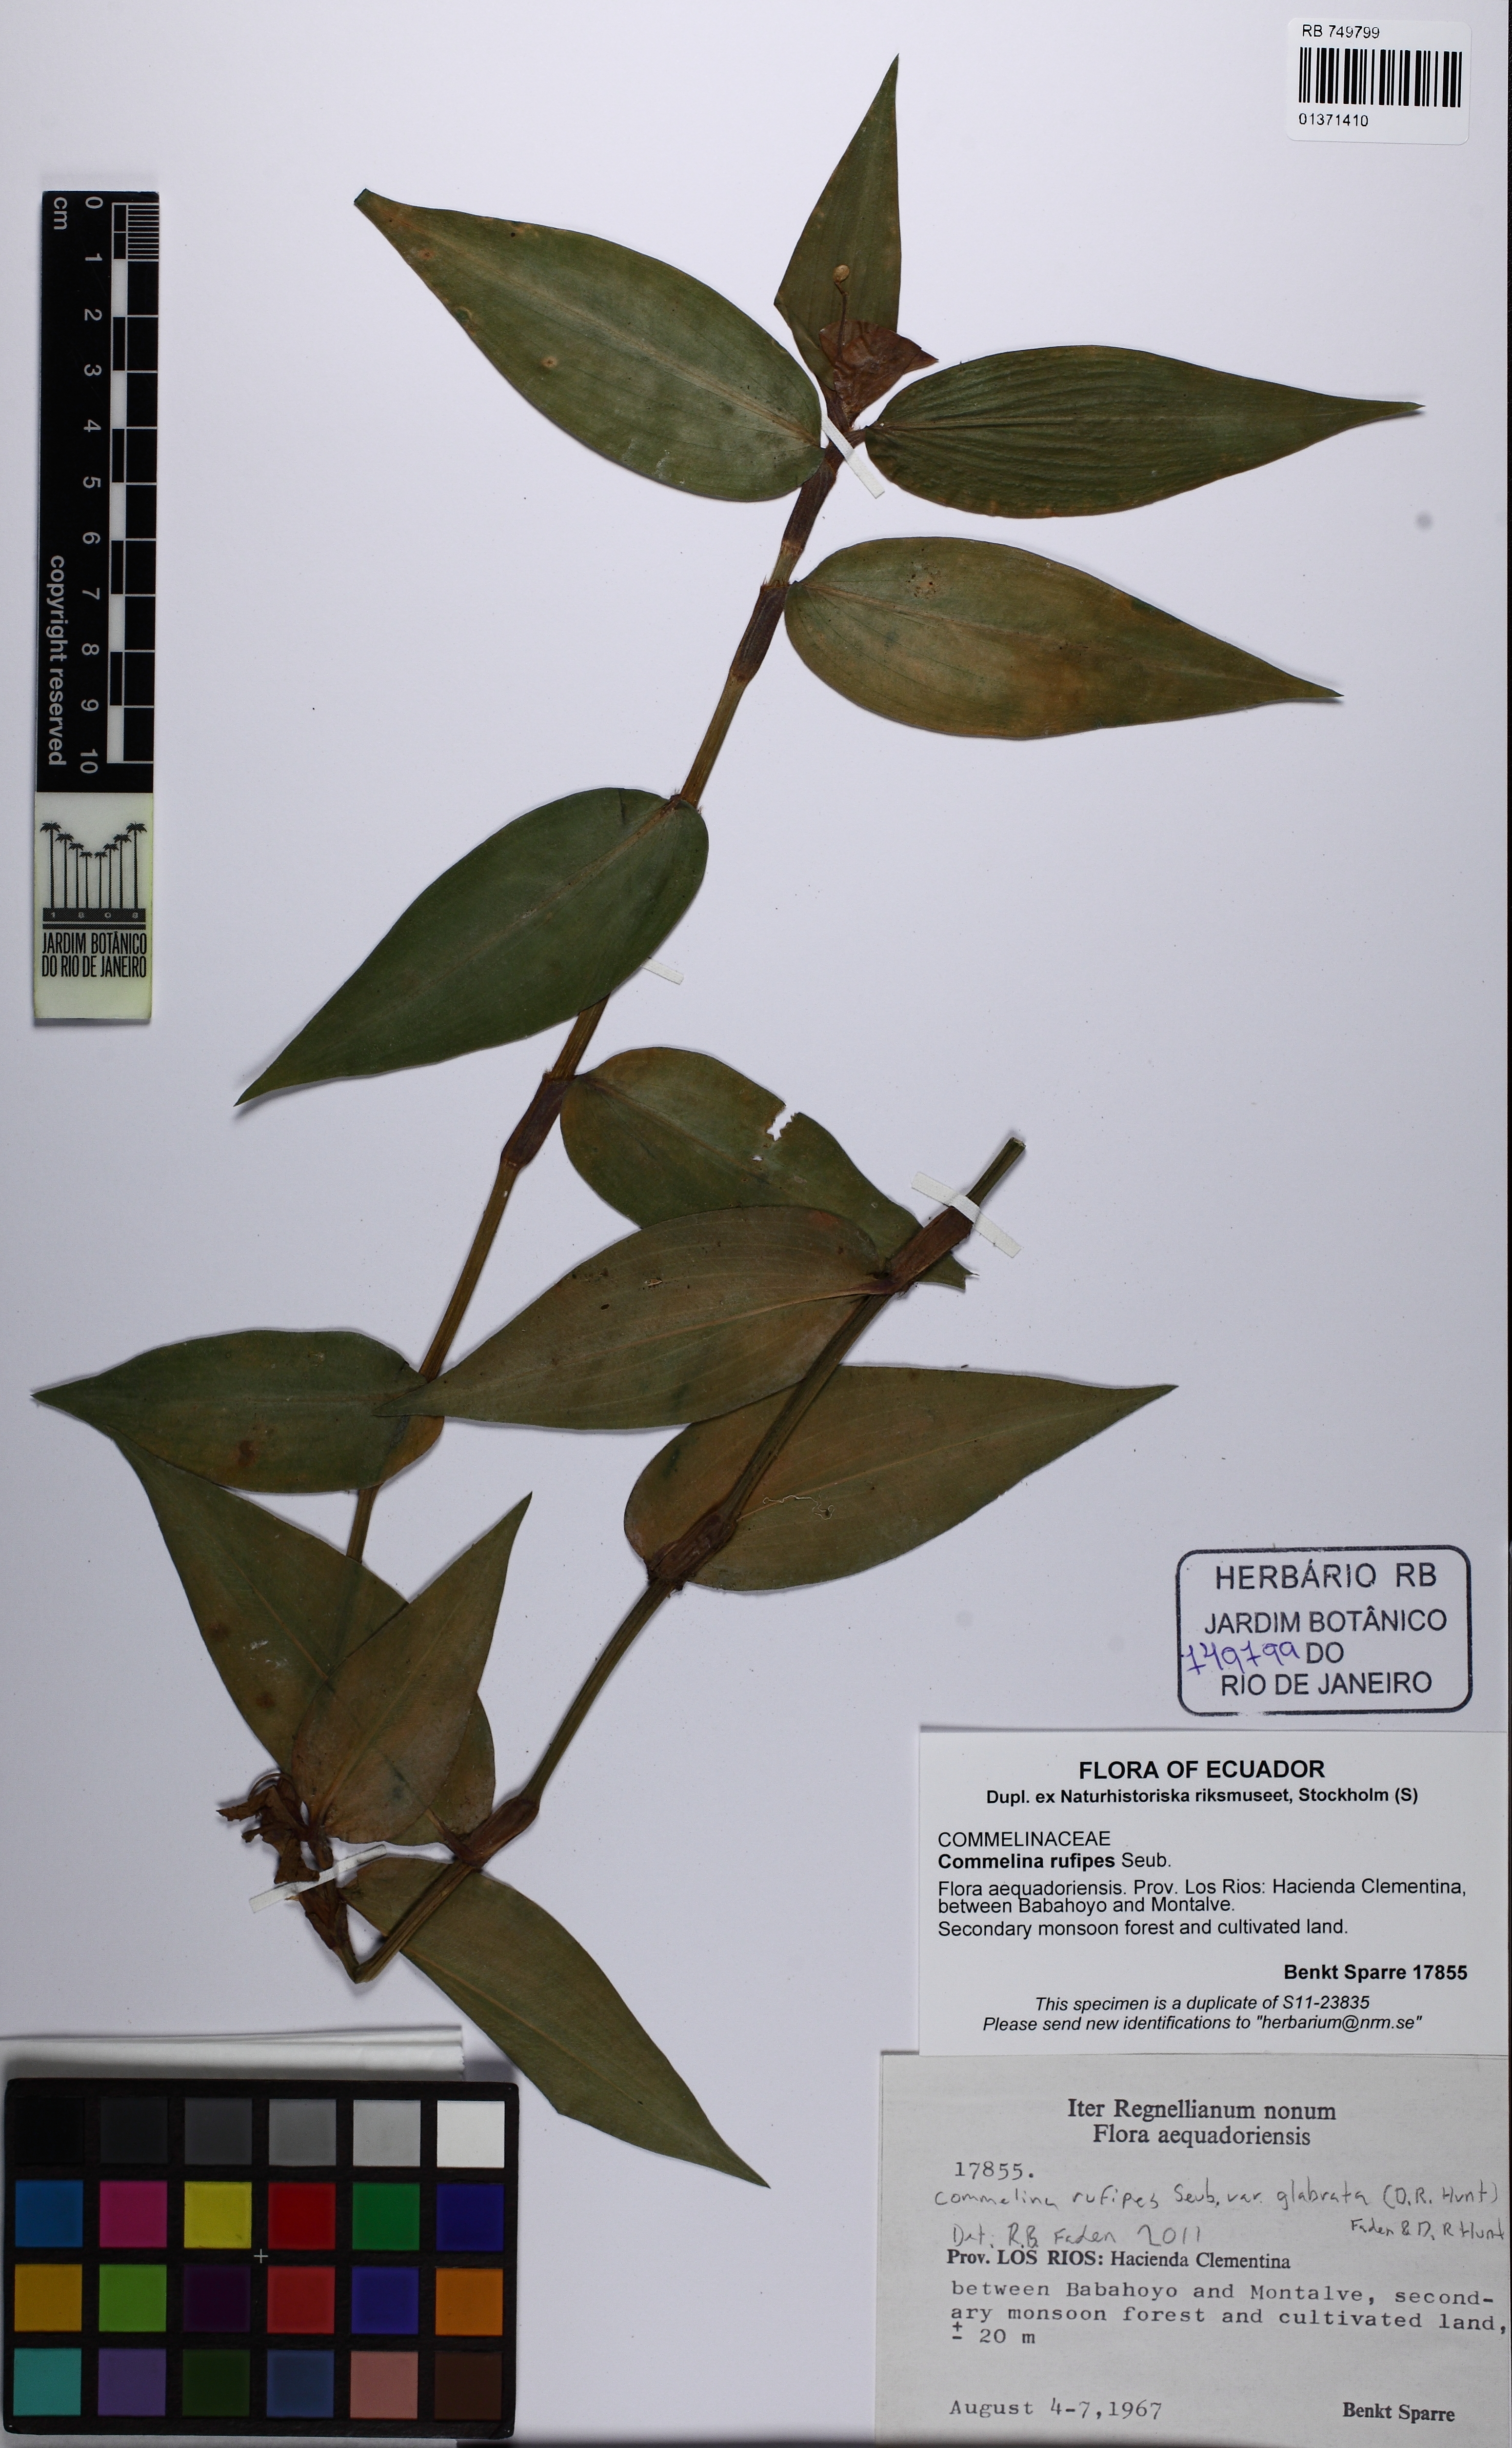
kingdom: Plantae
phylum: Tracheophyta
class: Liliopsida
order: Commelinales
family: Commelinaceae
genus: Commelina
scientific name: Commelina rufipes
